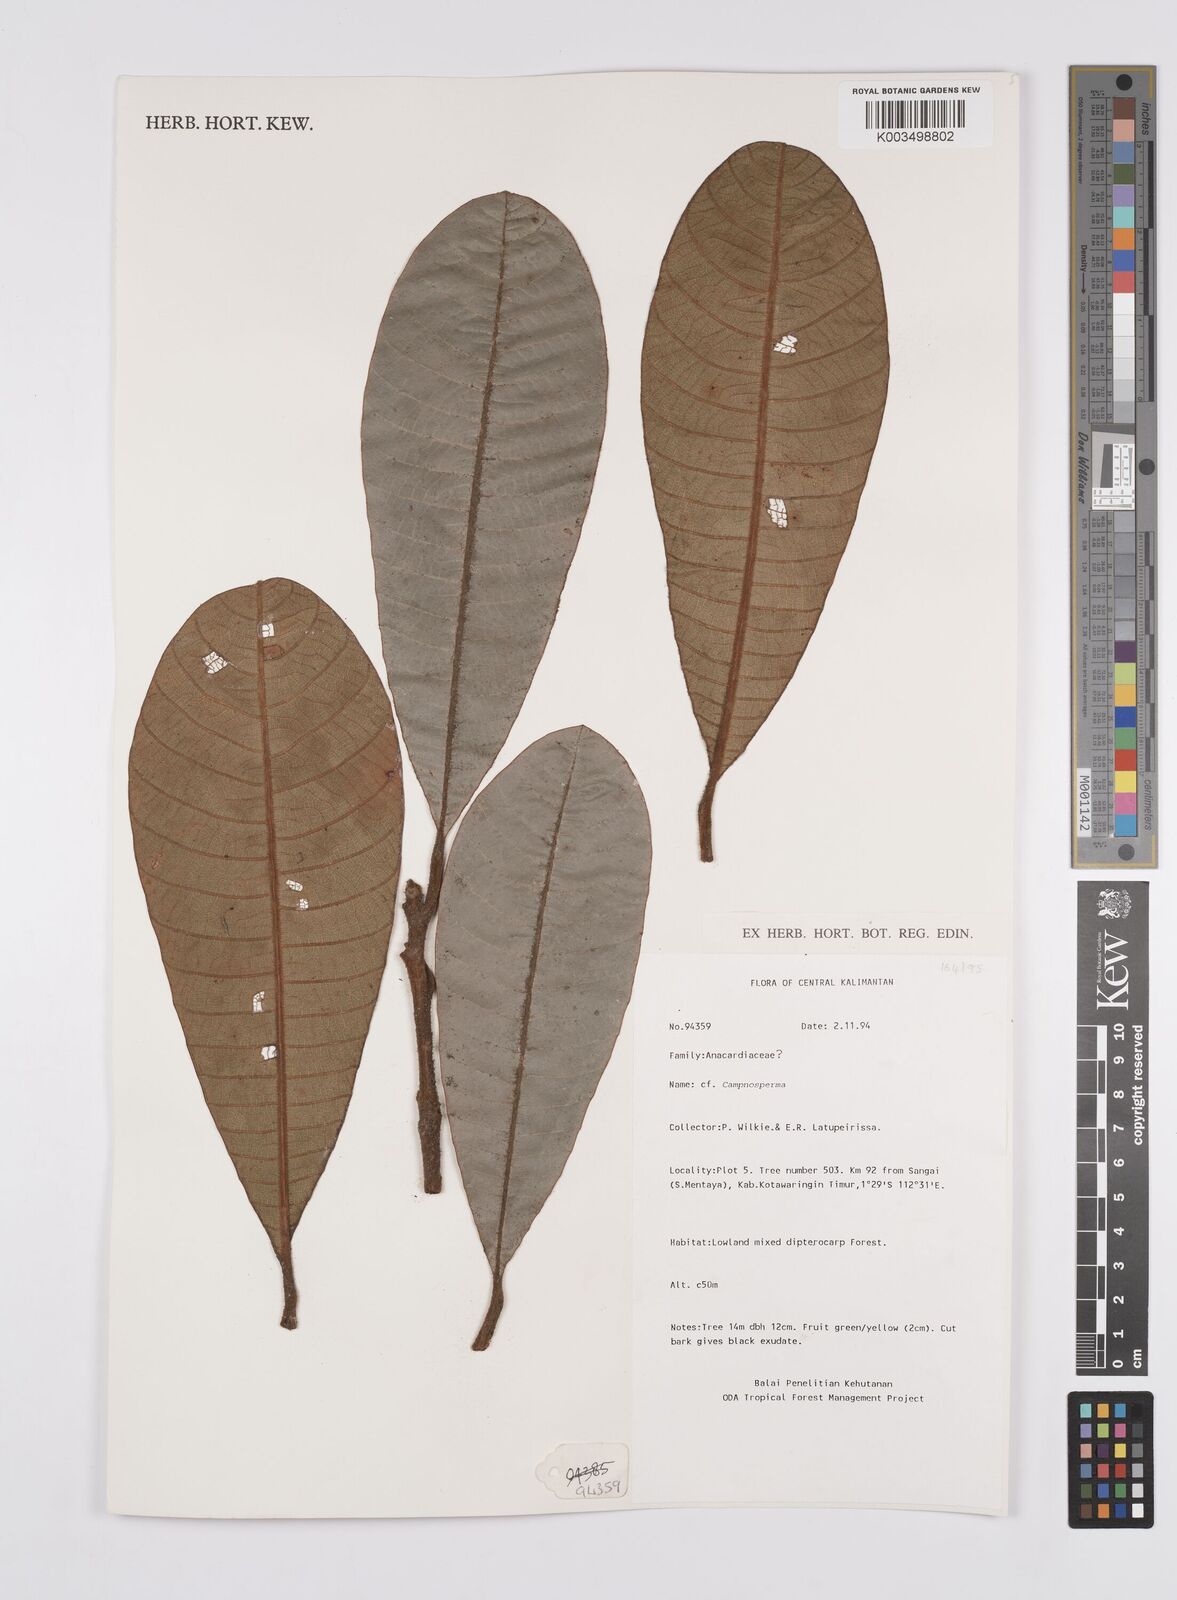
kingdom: Plantae
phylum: Tracheophyta
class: Magnoliopsida
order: Sapindales
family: Anacardiaceae
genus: Campnosperma
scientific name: Campnosperma
